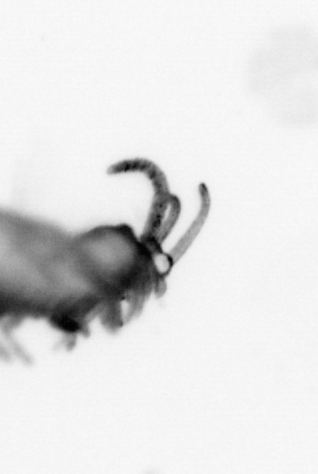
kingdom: Animalia
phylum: Annelida
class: Polychaeta
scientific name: Polychaeta
